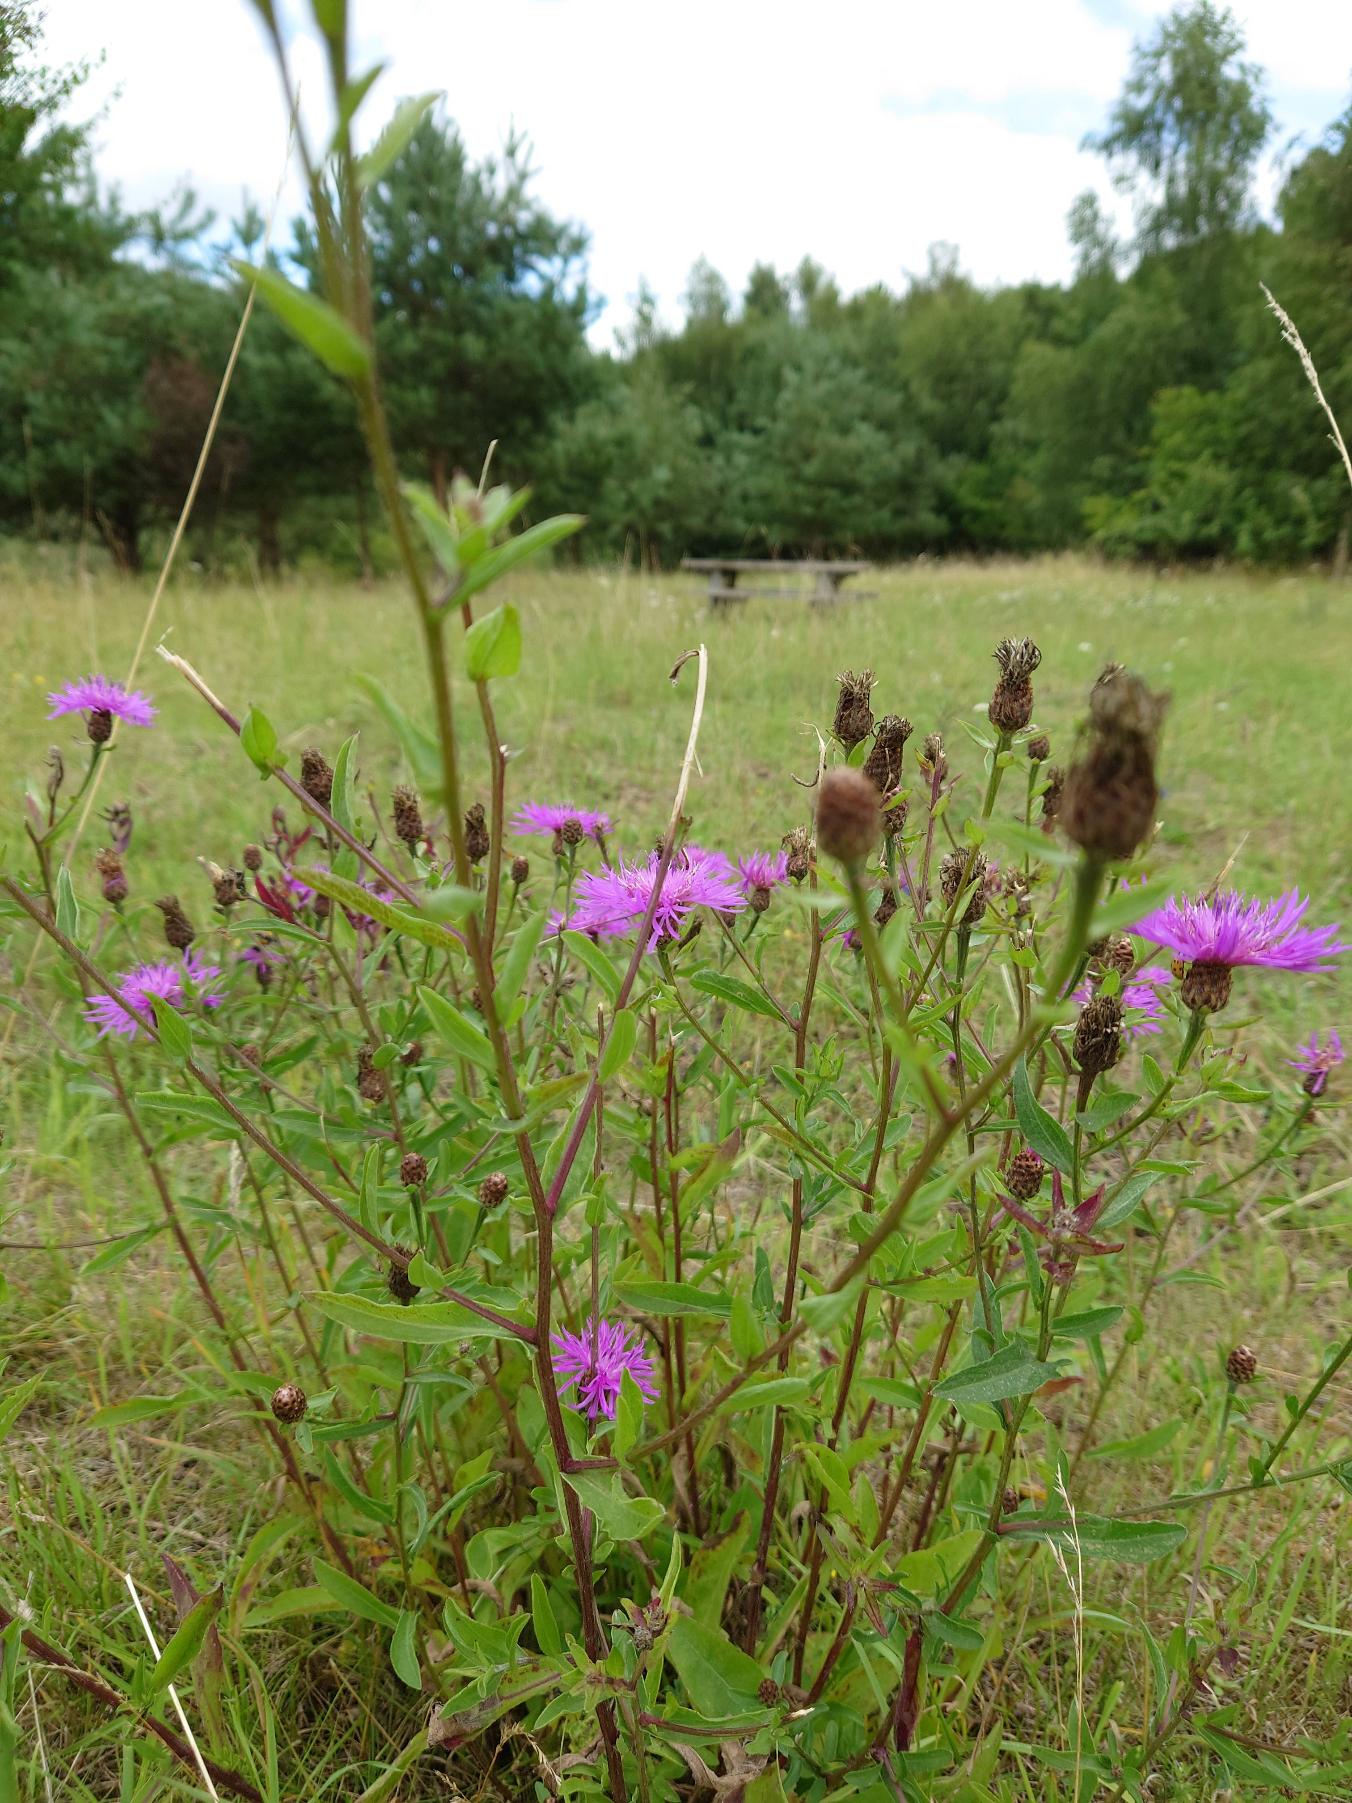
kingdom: Plantae
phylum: Tracheophyta
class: Magnoliopsida
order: Asterales
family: Asteraceae
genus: Centaurea
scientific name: Centaurea jacea
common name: Almindelig knopurt
